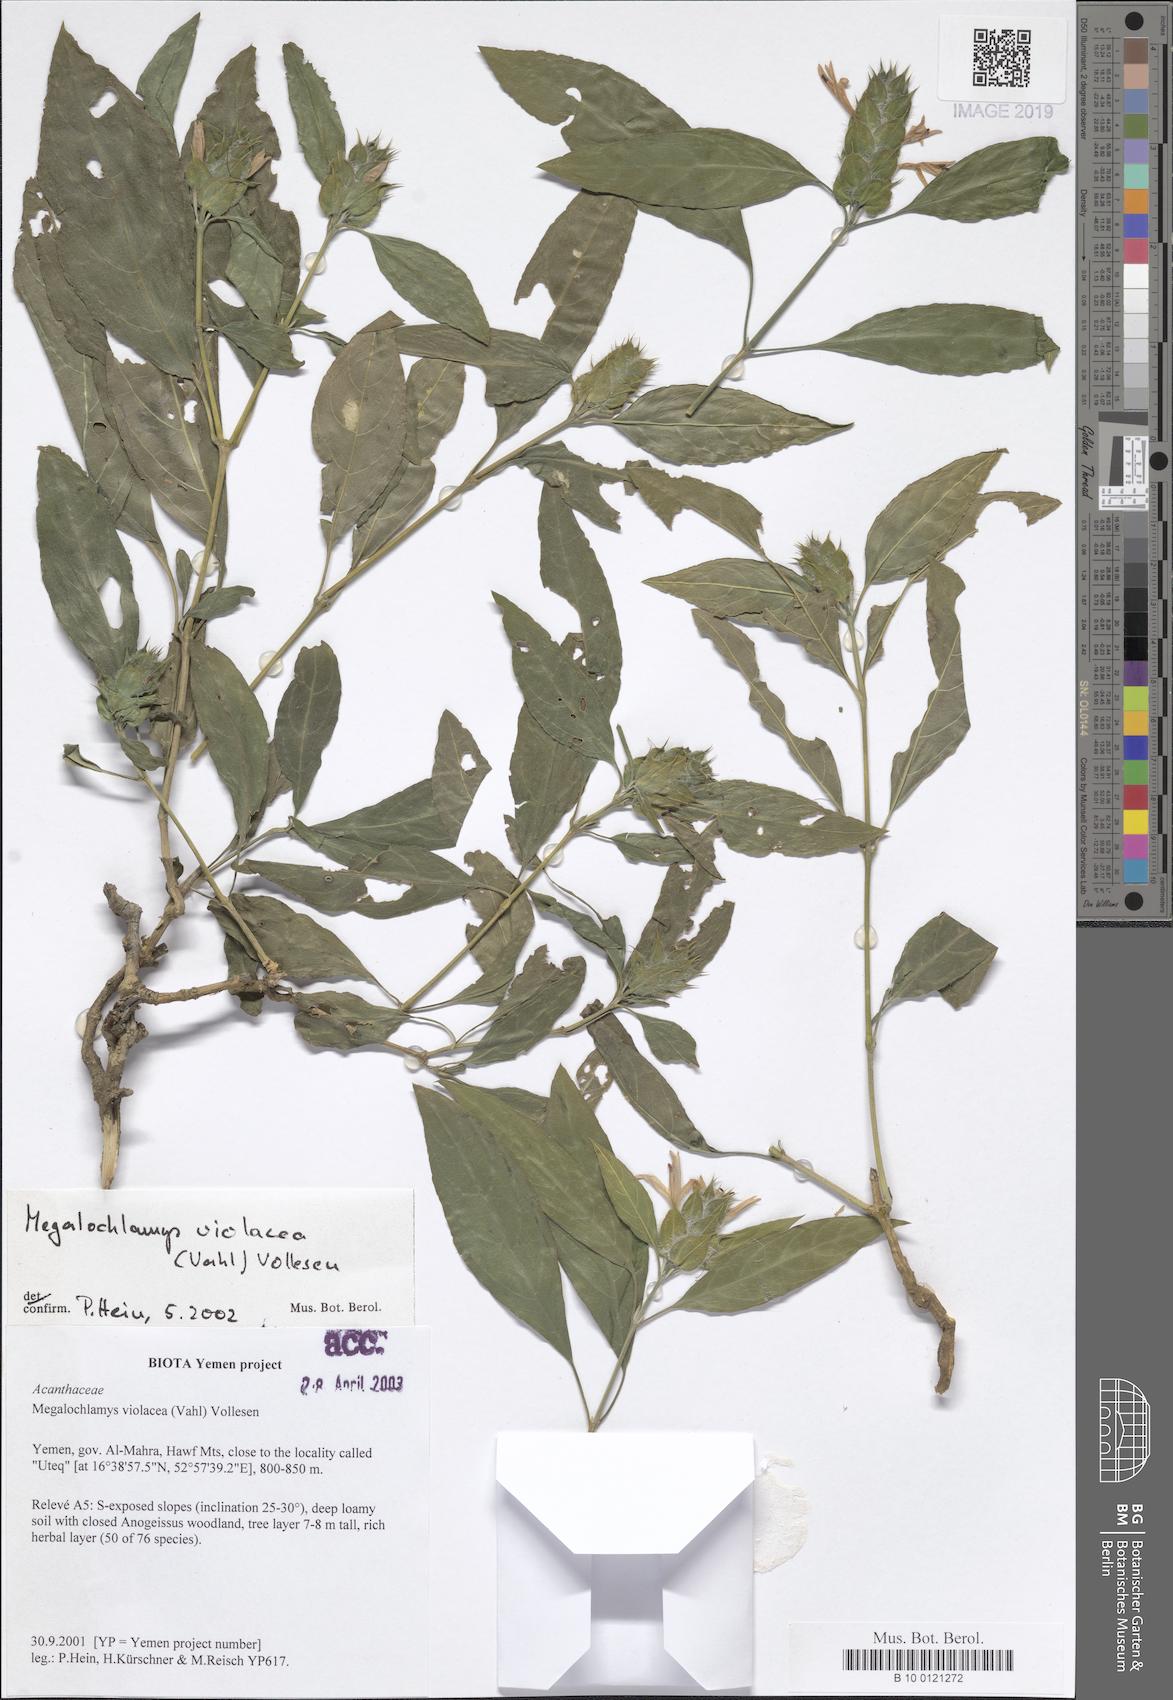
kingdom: Plantae
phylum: Tracheophyta
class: Magnoliopsida
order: Lamiales
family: Acanthaceae
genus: Megalochlamys
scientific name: Megalochlamys violacea
